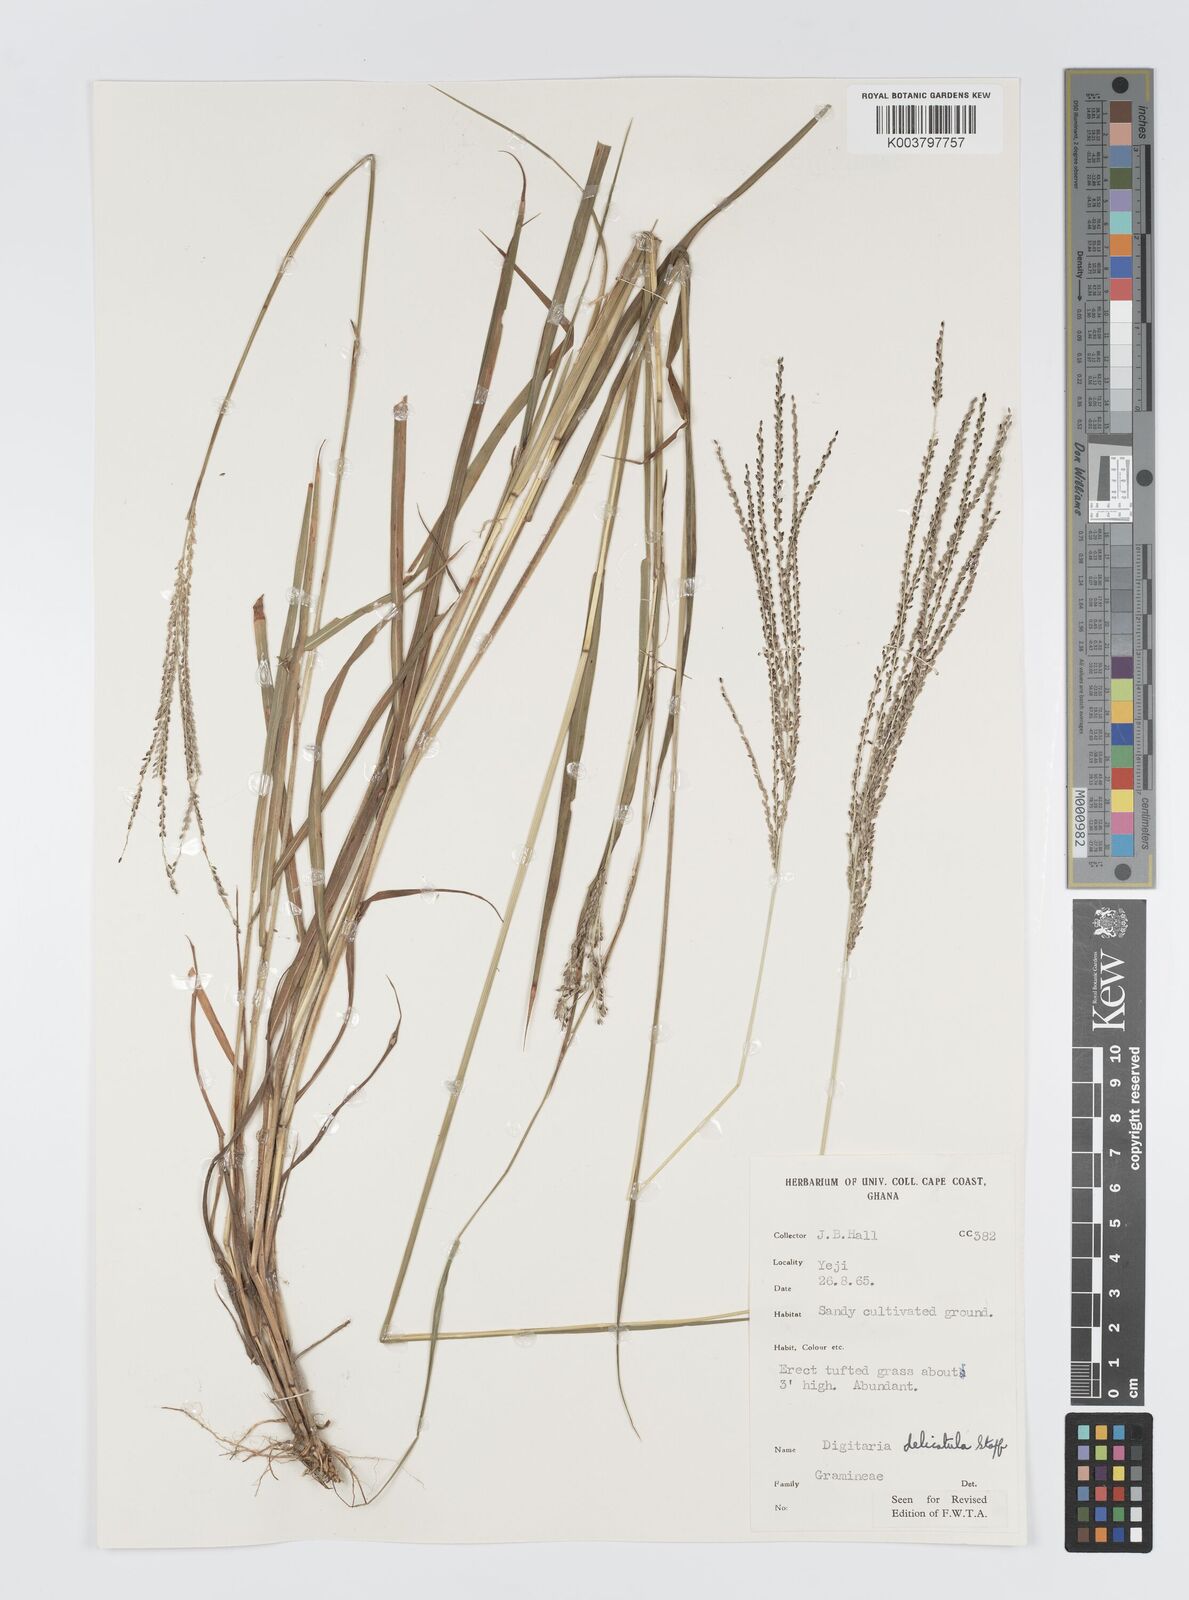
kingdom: Plantae
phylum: Tracheophyta
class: Liliopsida
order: Poales
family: Poaceae
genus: Digitaria
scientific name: Digitaria delicatula
